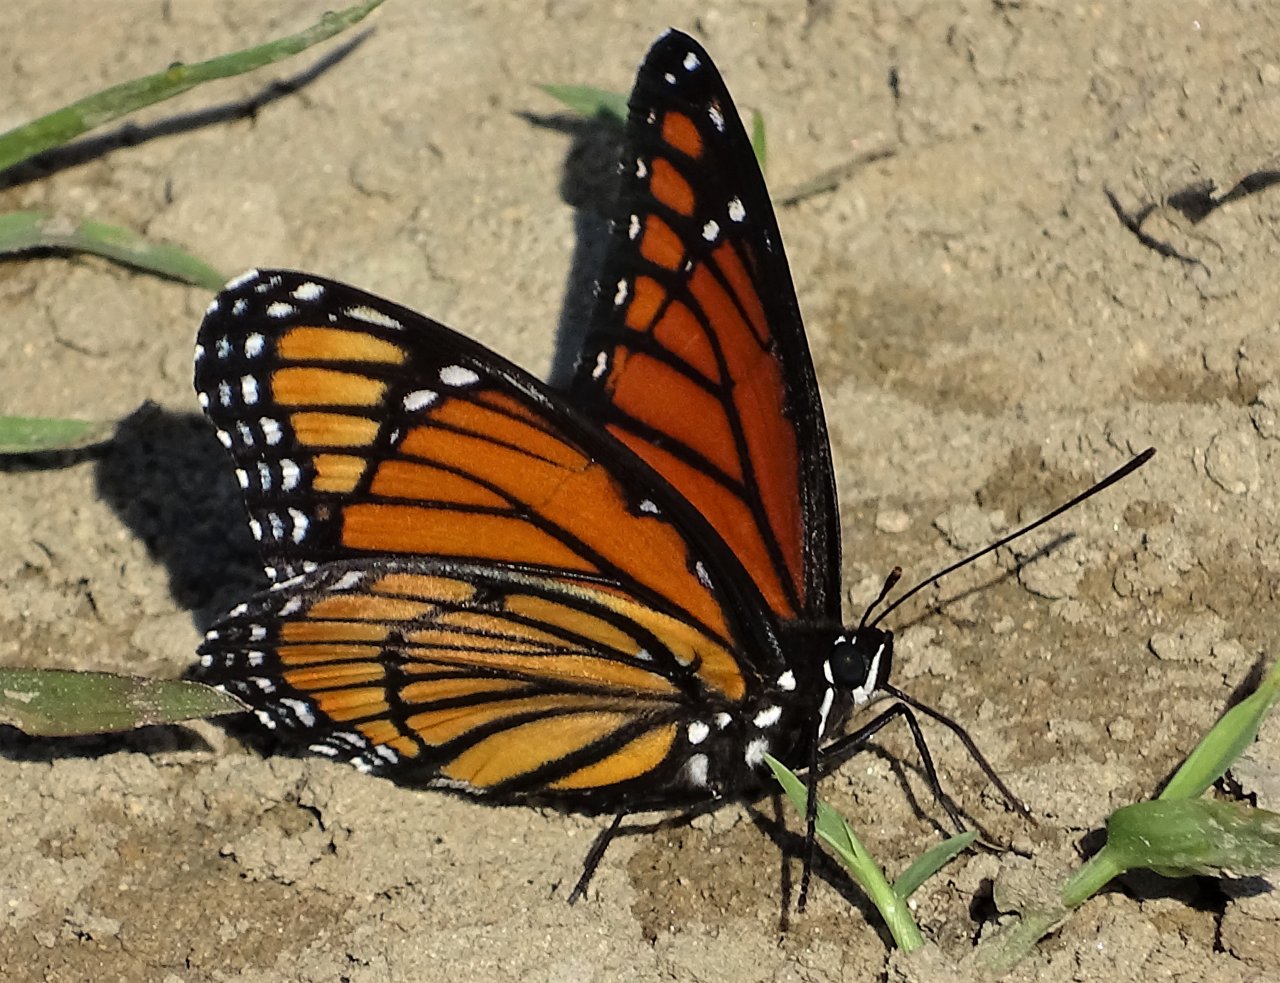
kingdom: Animalia
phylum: Arthropoda
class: Insecta
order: Lepidoptera
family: Nymphalidae
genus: Limenitis
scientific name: Limenitis archippus
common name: Viceroy
